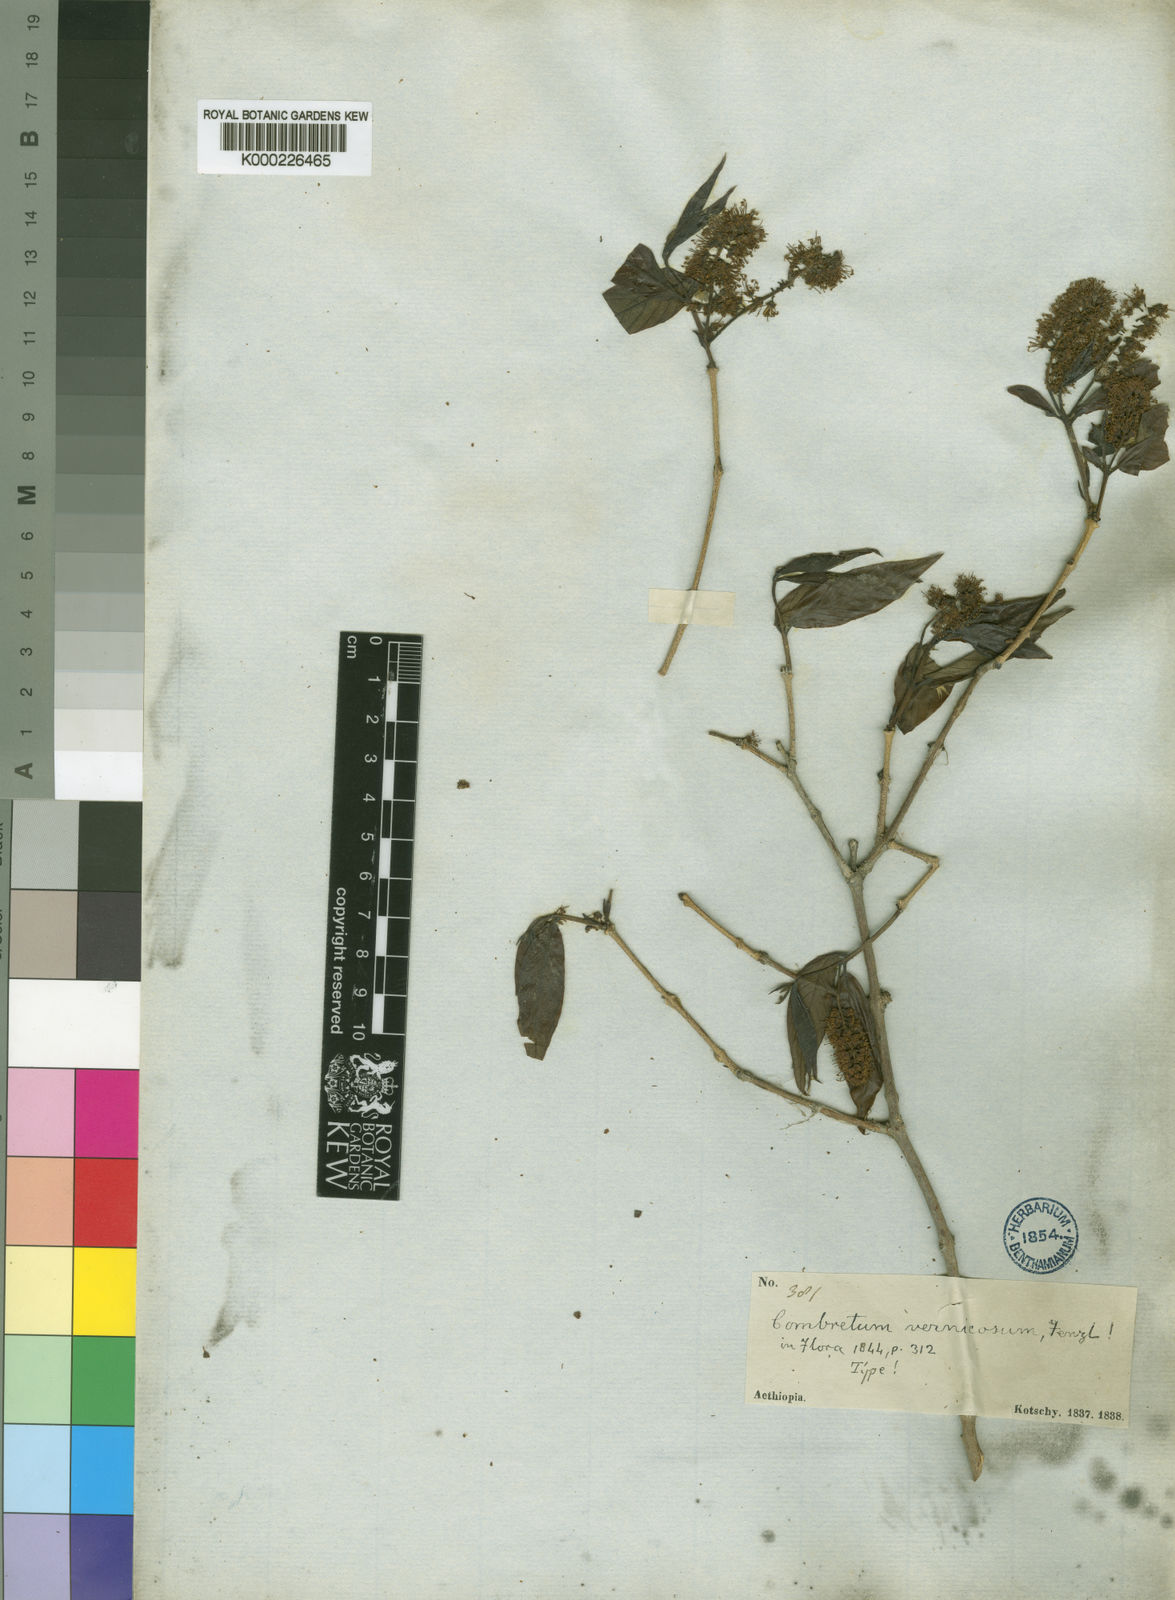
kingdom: Plantae
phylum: Tracheophyta
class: Magnoliopsida
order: Myrtales
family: Combretaceae
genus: Combretum
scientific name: Combretum molle
